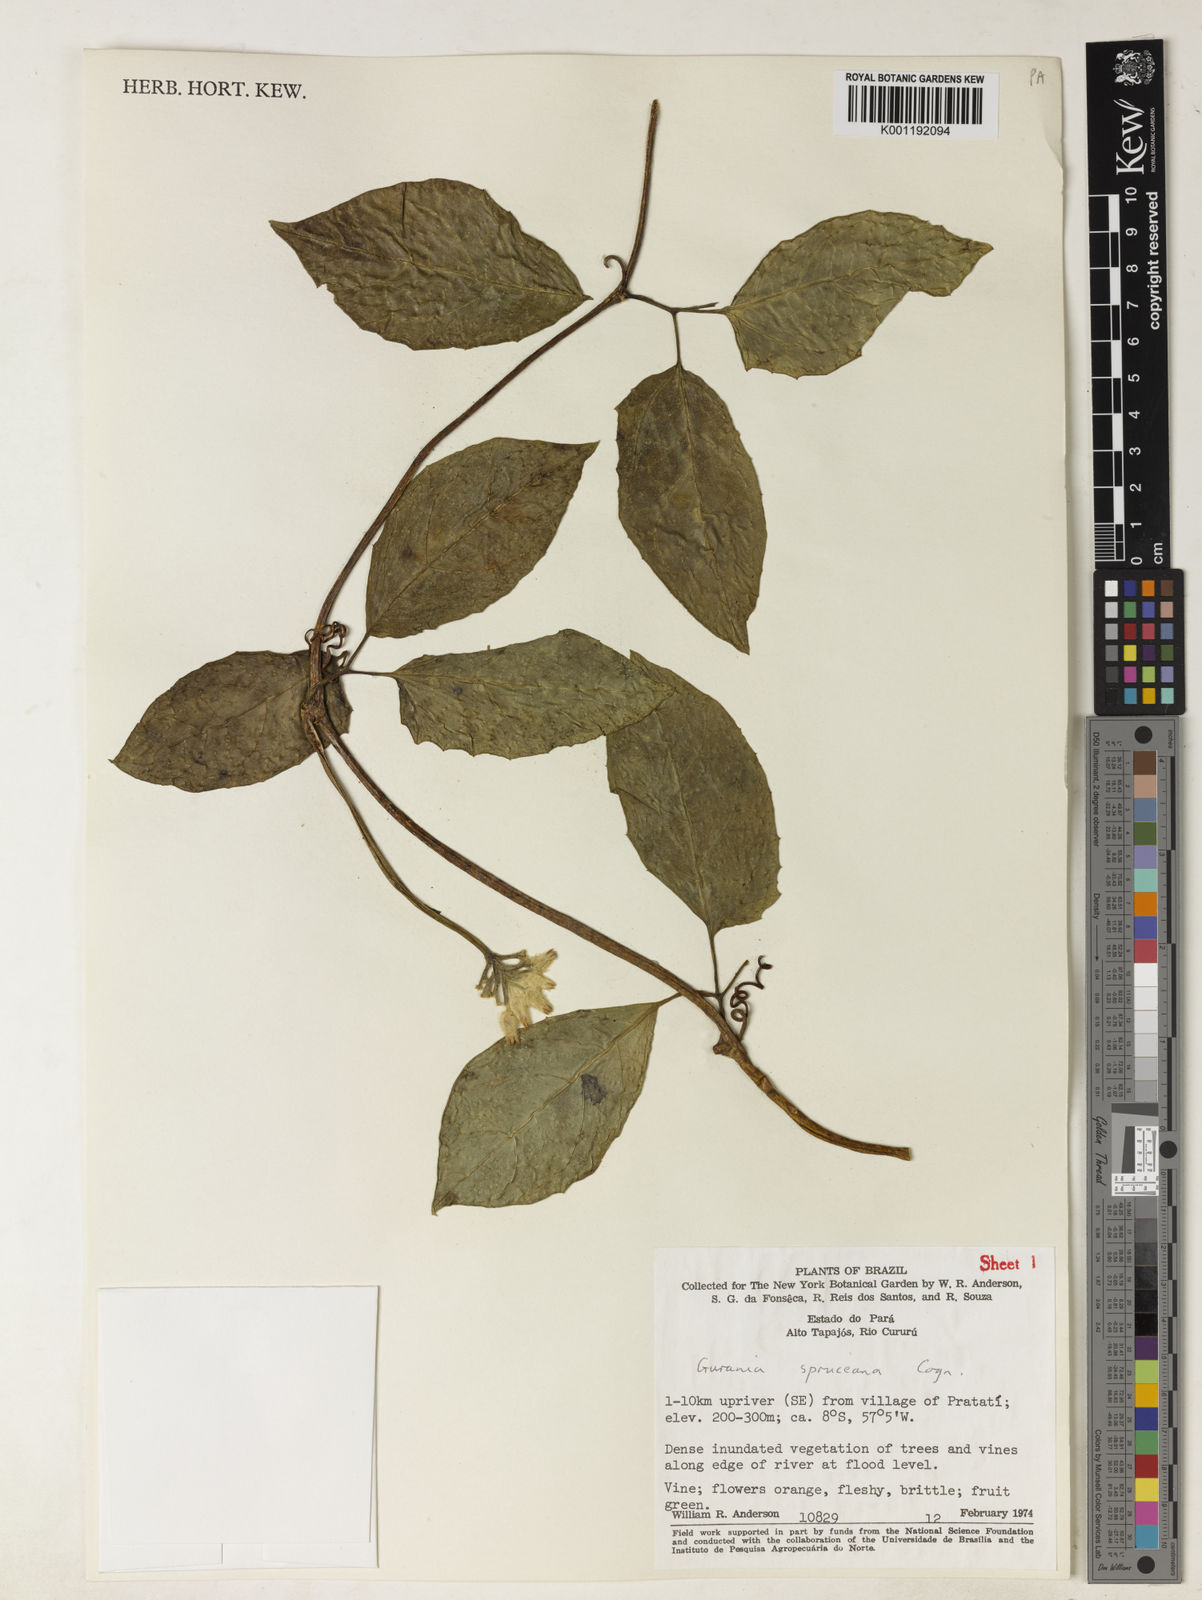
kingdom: Plantae
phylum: Tracheophyta
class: Magnoliopsida
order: Cucurbitales
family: Cucurbitaceae
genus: Gurania
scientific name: Gurania spruceana
